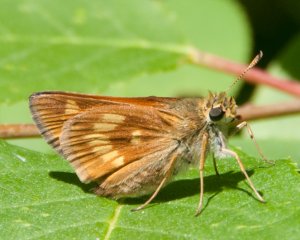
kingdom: Animalia
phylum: Arthropoda
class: Insecta
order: Lepidoptera
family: Hesperiidae
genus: Polites
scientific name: Polites
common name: Long Dash Skipper
